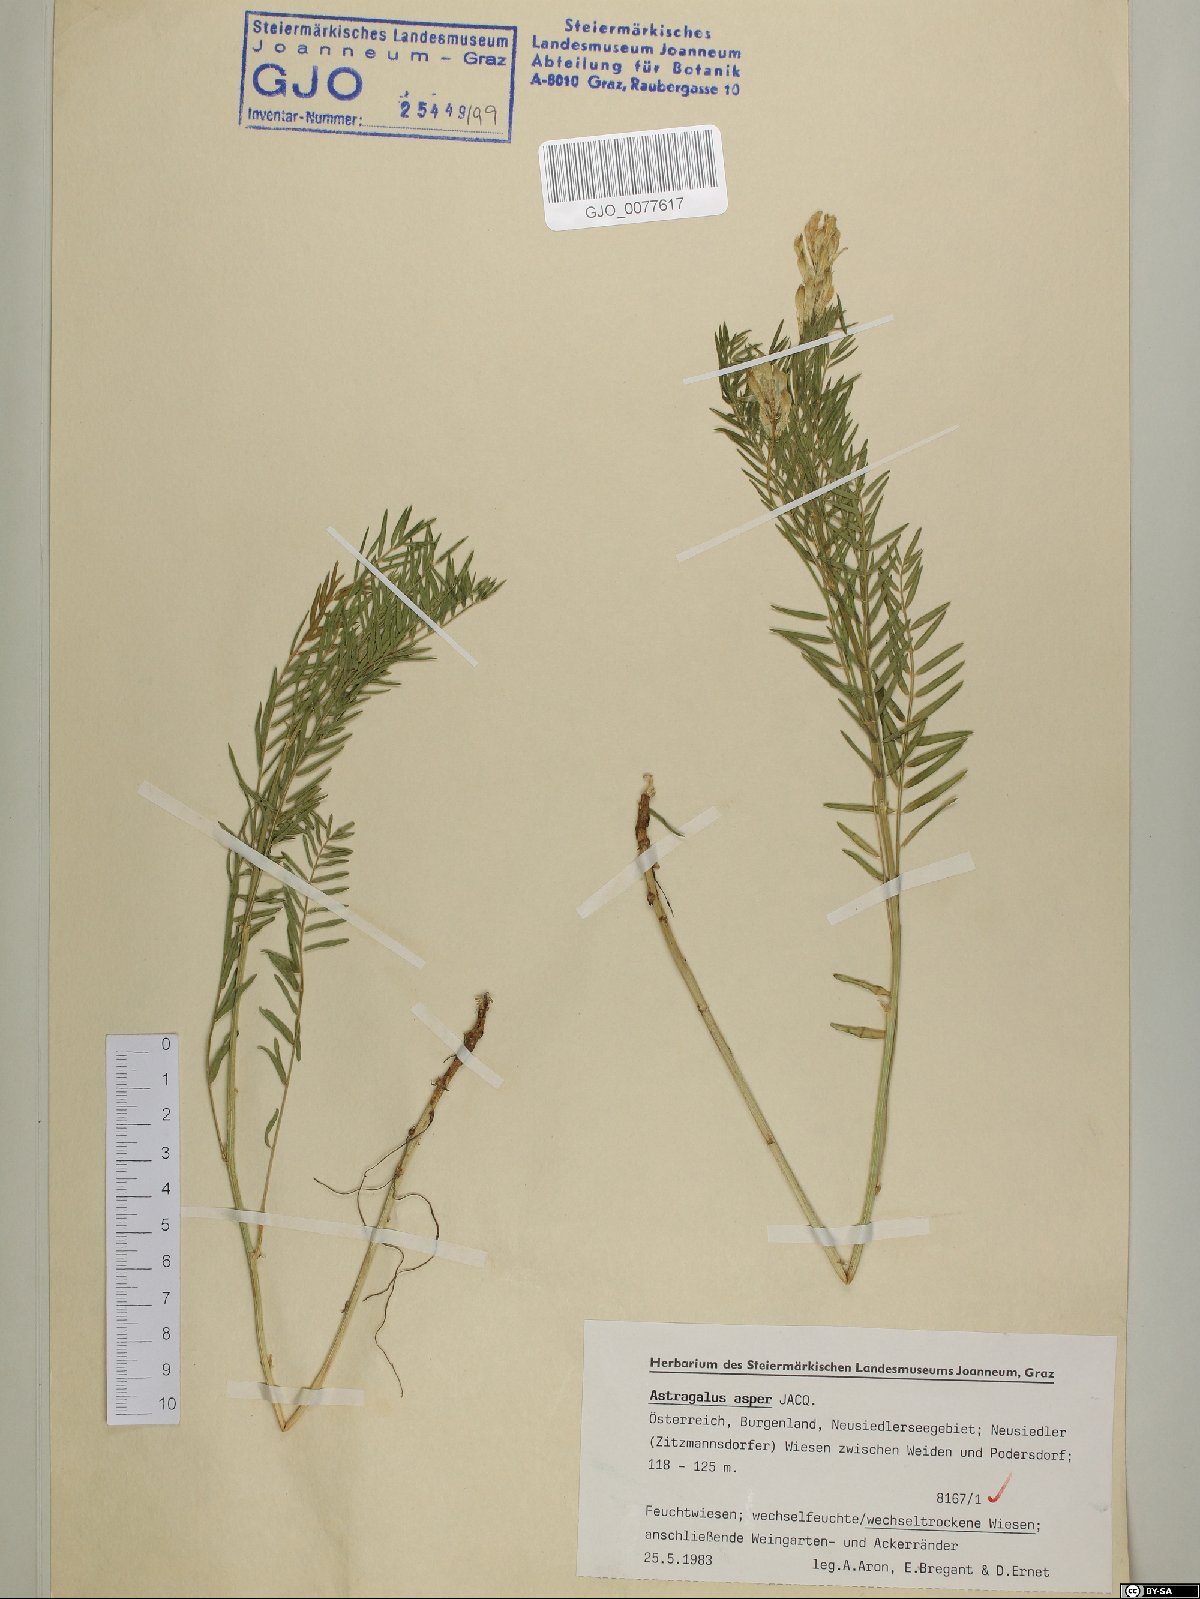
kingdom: Plantae
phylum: Tracheophyta
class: Magnoliopsida
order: Fabales
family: Fabaceae
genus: Astragalus
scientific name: Astragalus asper
